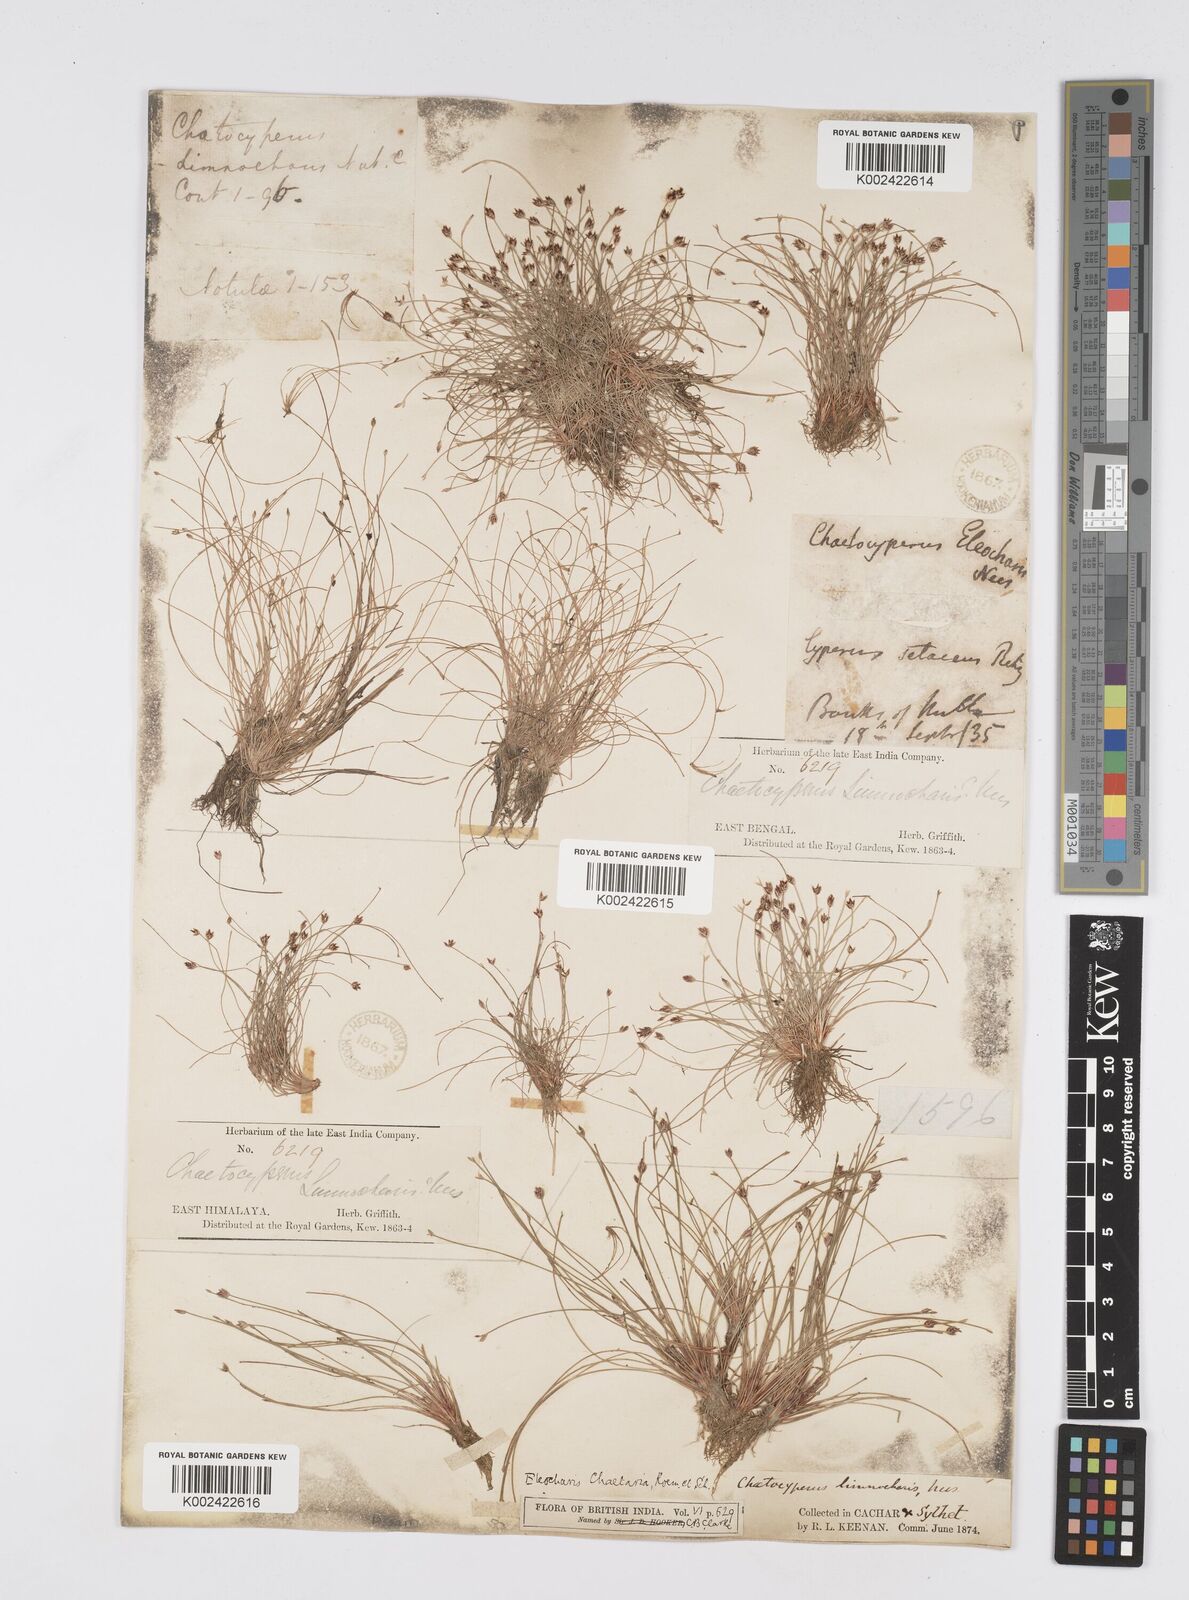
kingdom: Plantae
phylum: Tracheophyta
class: Liliopsida
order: Poales
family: Cyperaceae
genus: Eleocharis
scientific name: Eleocharis retroflexa
